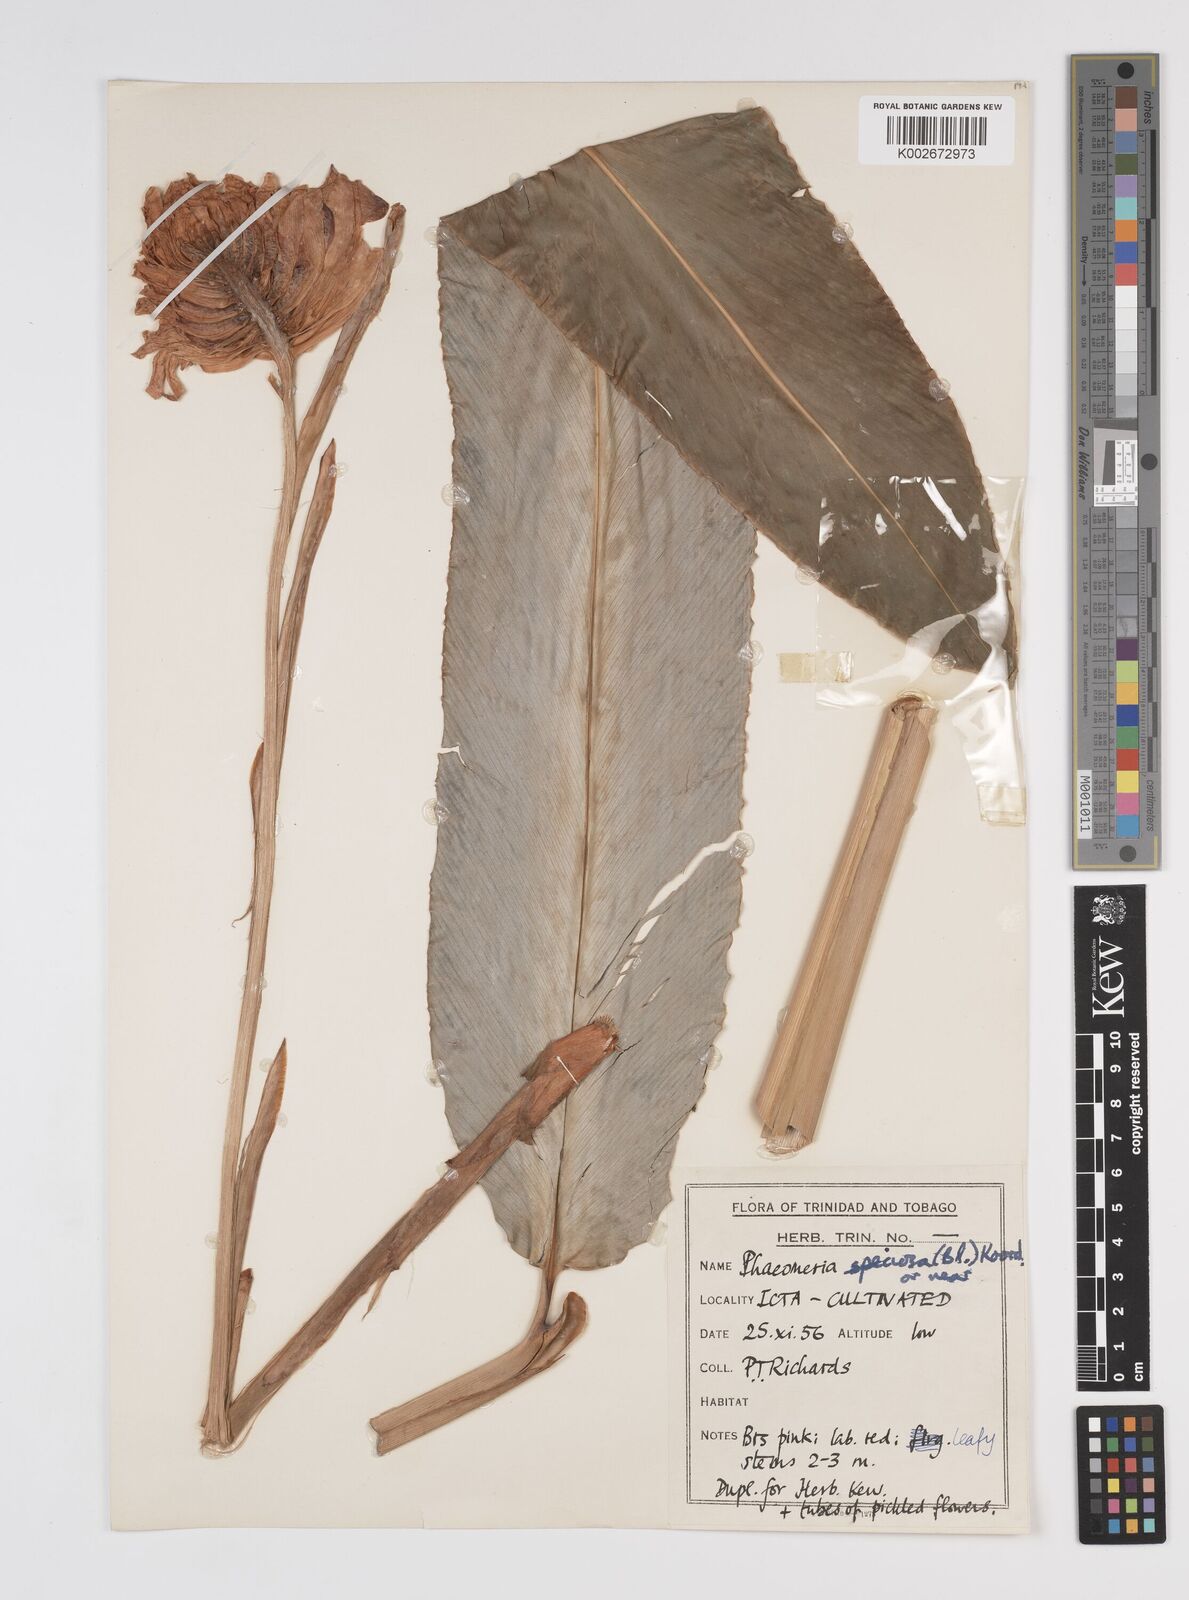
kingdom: Plantae
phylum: Tracheophyta
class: Liliopsida
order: Zingiberales
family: Zingiberaceae
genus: Etlingera
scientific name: Etlingera elatior
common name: Philippine waxflower
